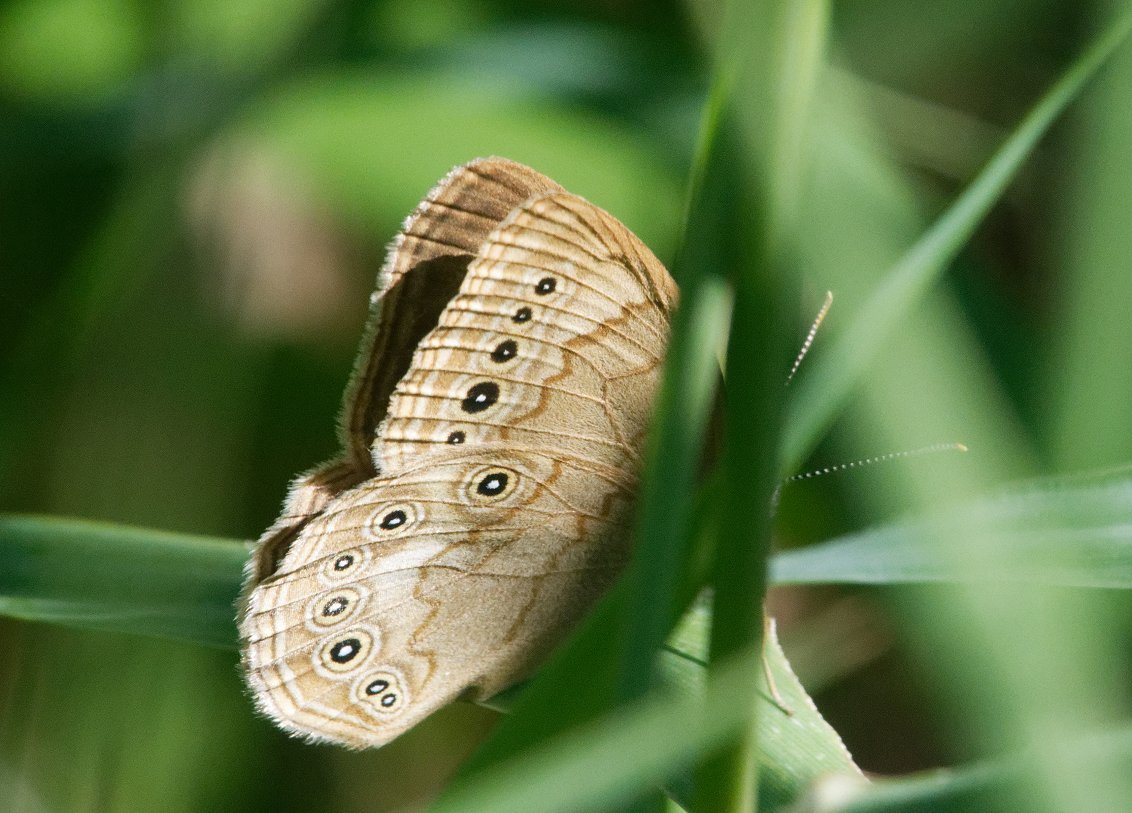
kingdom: Animalia
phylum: Arthropoda
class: Insecta
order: Lepidoptera
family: Nymphalidae
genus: Lethe
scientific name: Lethe eurydice
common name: Eyed Brown
